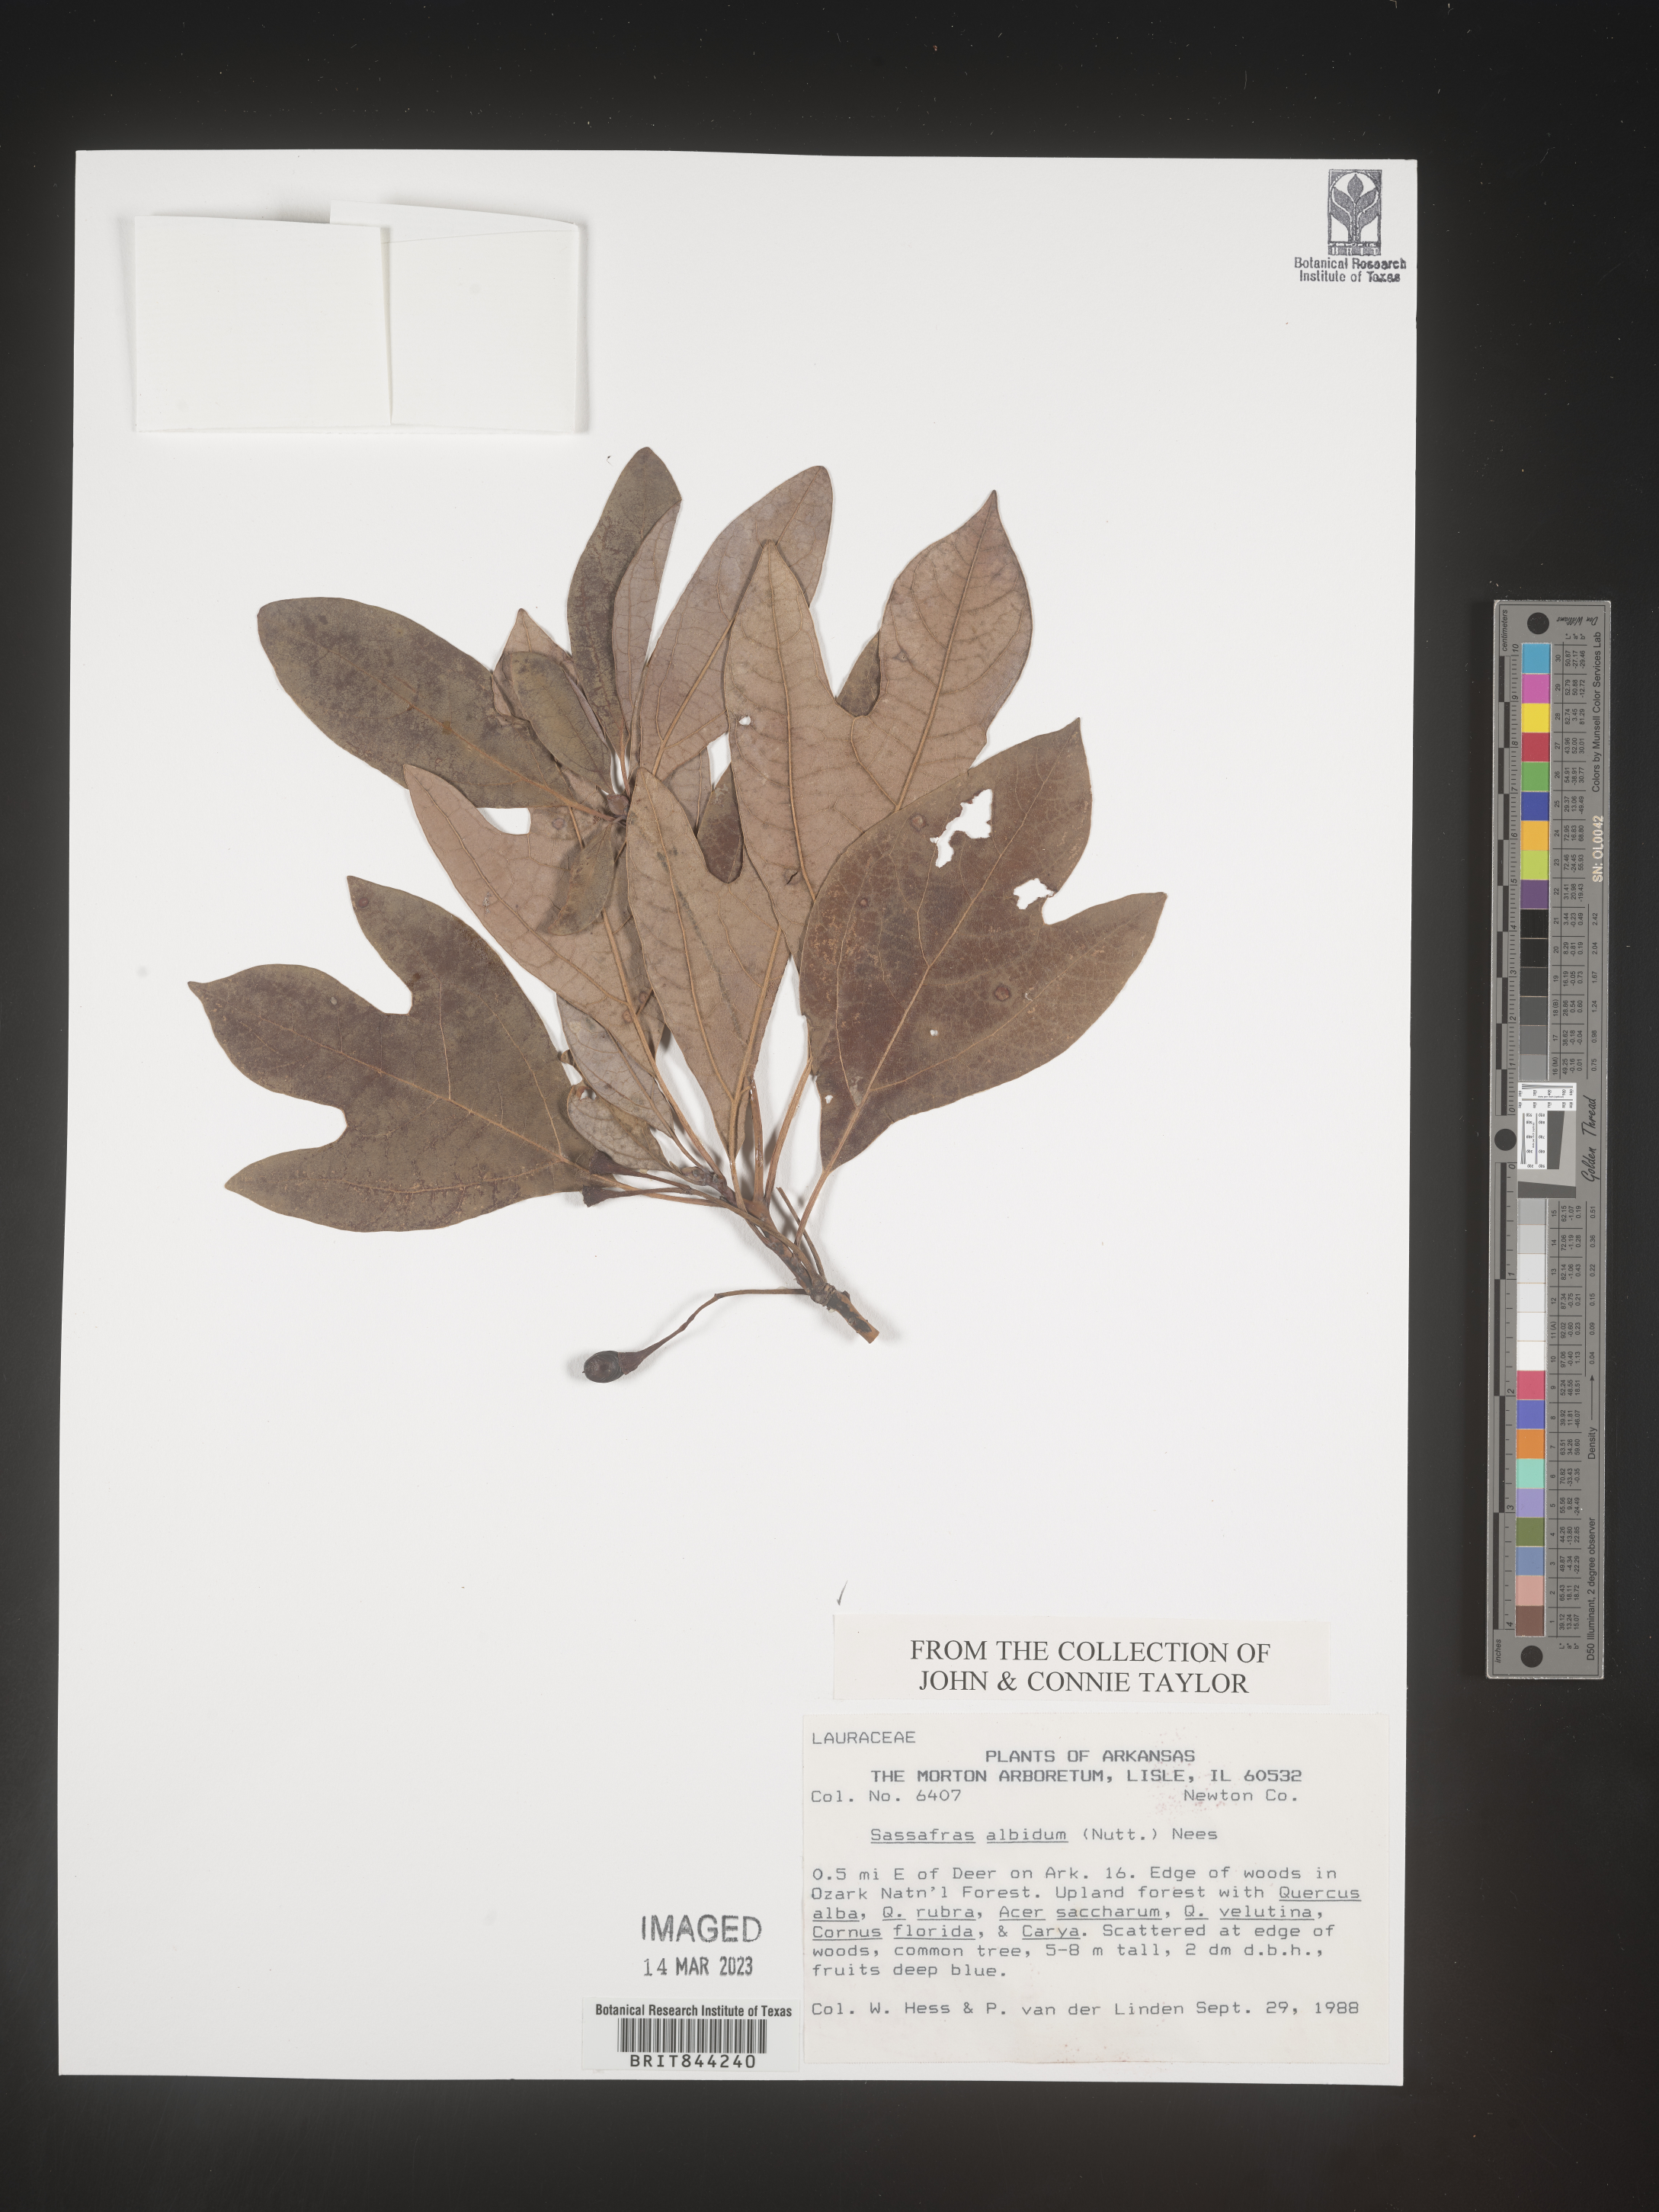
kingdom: Plantae
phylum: Tracheophyta
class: Magnoliopsida
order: Laurales
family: Lauraceae
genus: Sassafras
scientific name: Sassafras albidum
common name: Sassafras
